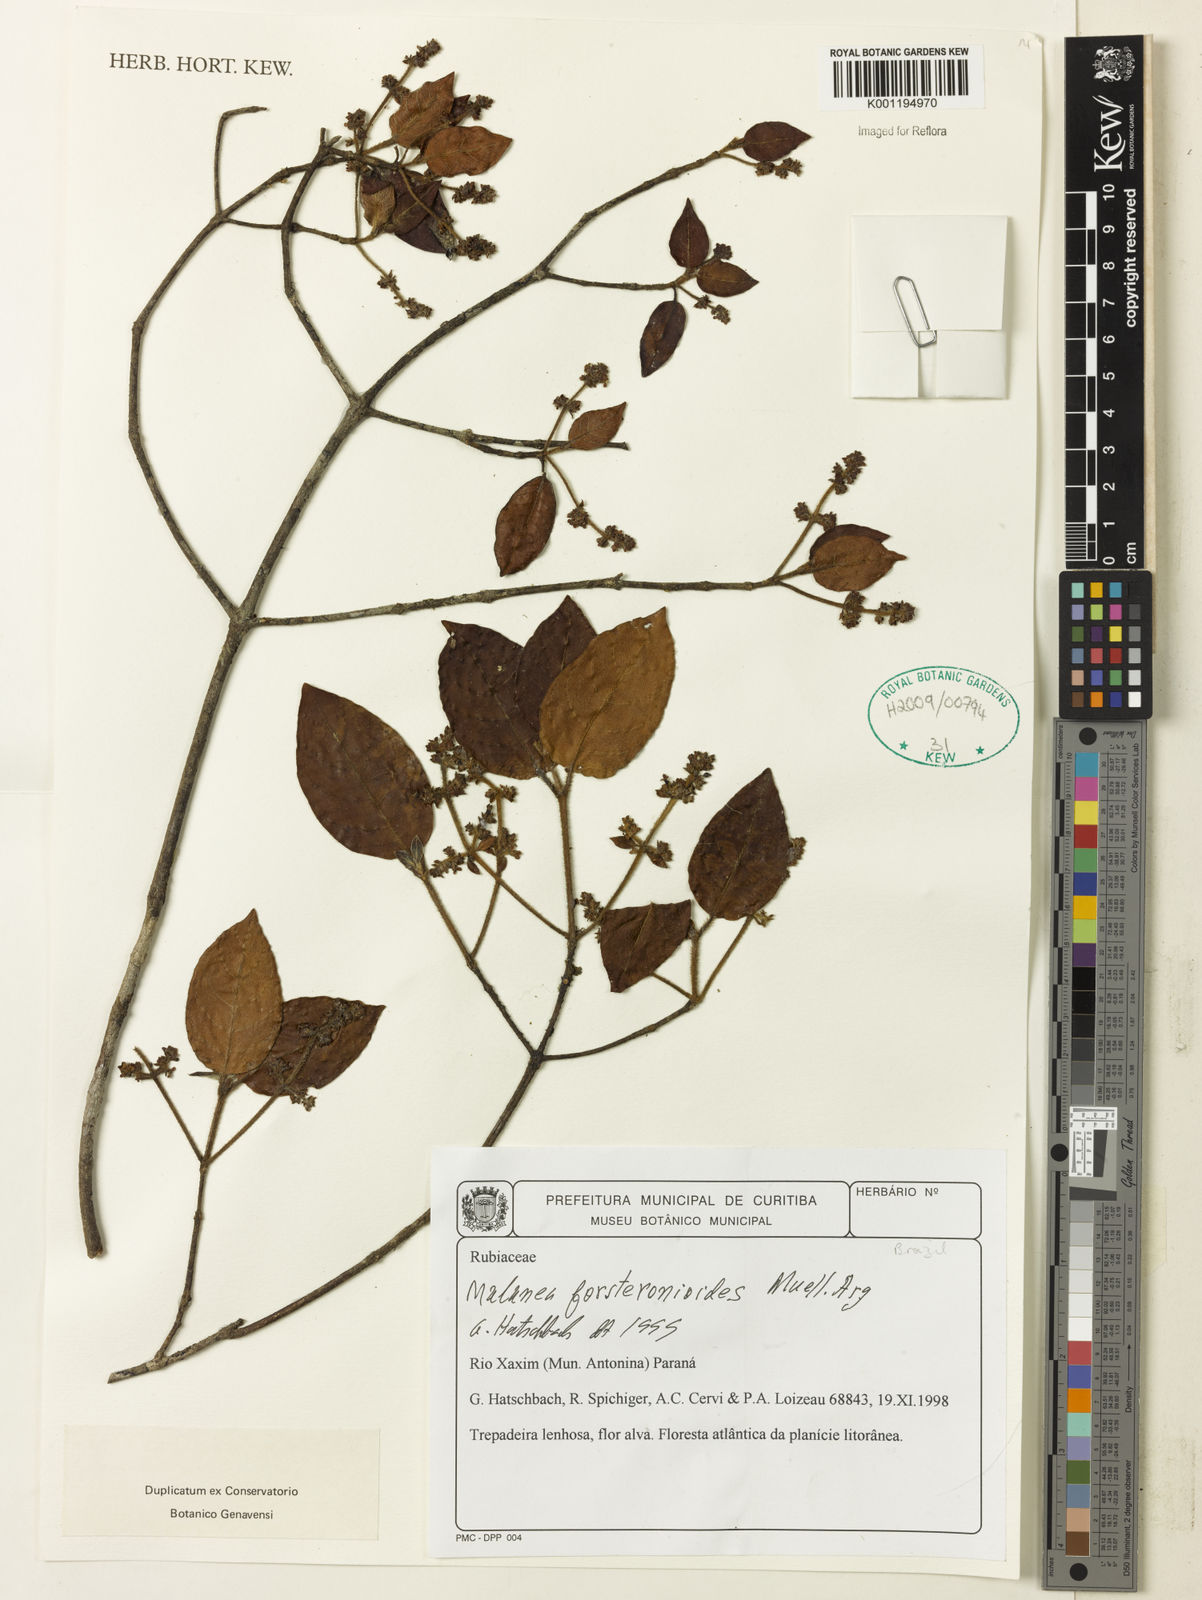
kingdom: Plantae
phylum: Tracheophyta
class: Magnoliopsida
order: Gentianales
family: Rubiaceae
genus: Malanea
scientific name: Malanea
